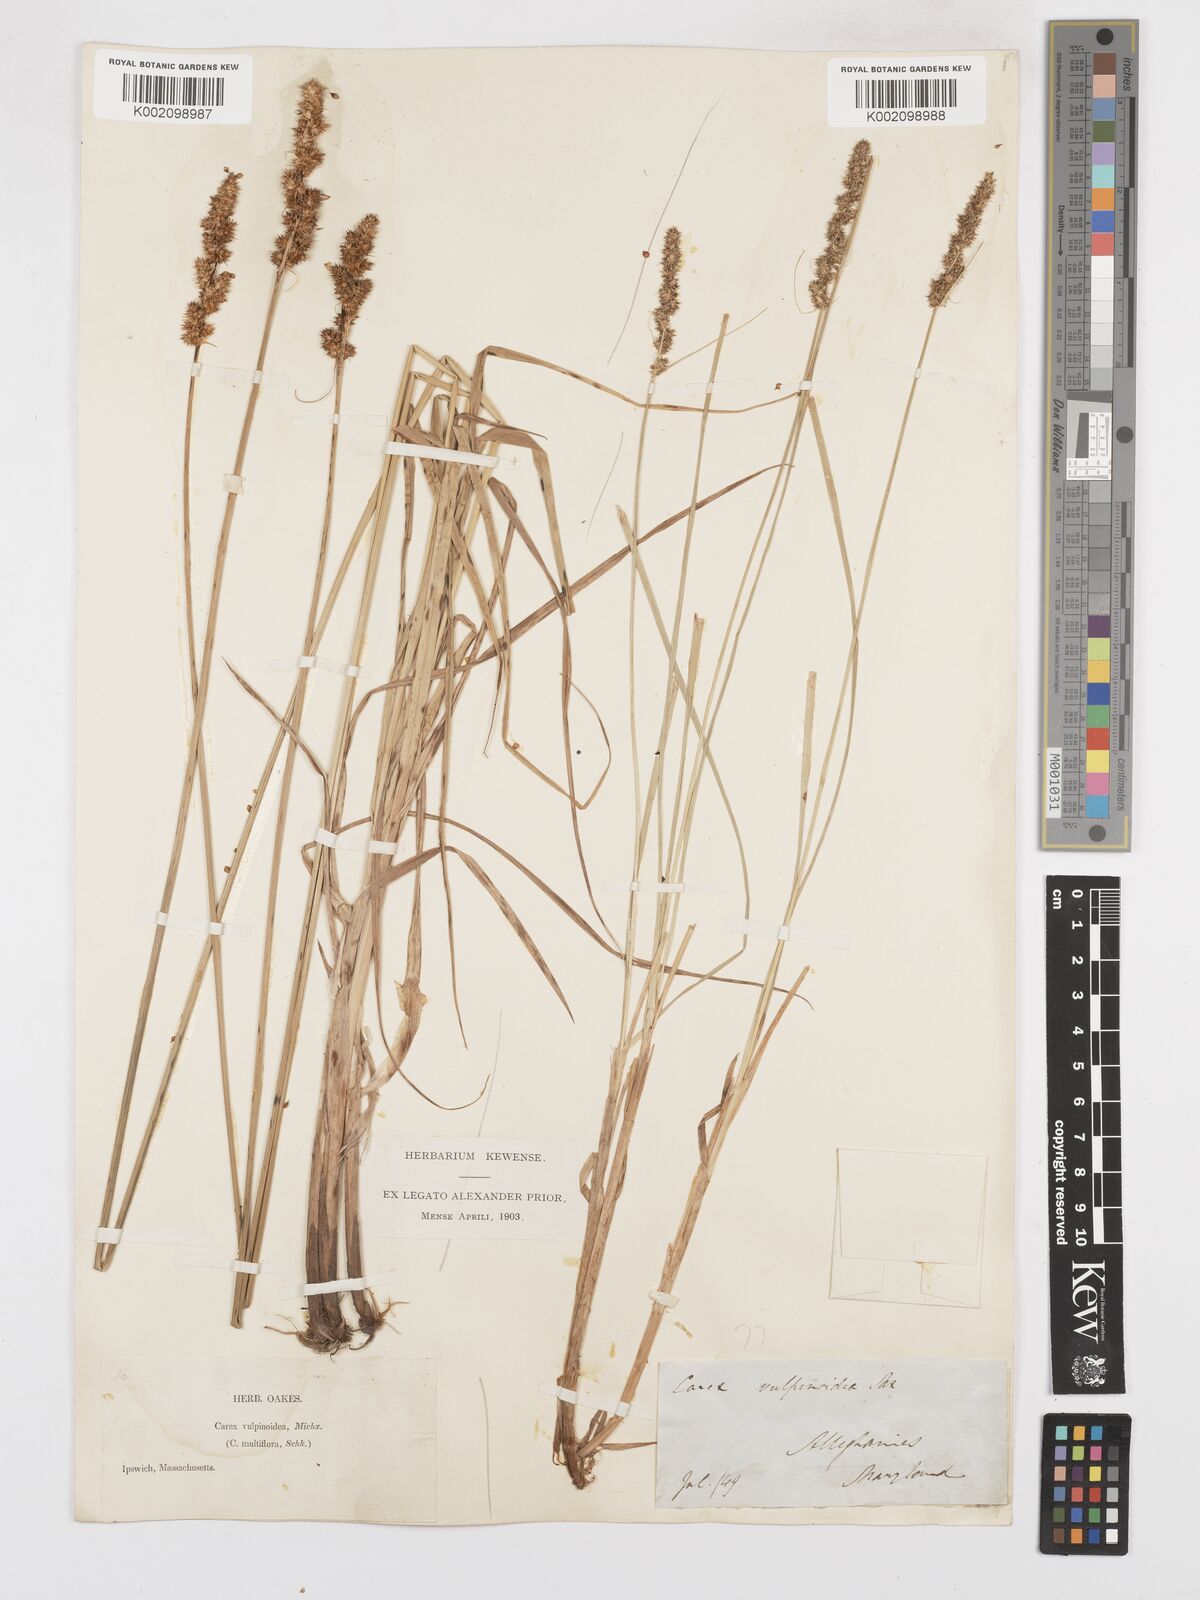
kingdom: Plantae
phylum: Tracheophyta
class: Liliopsida
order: Poales
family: Cyperaceae
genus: Carex
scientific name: Carex vulpinoidea
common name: American fox-sedge
